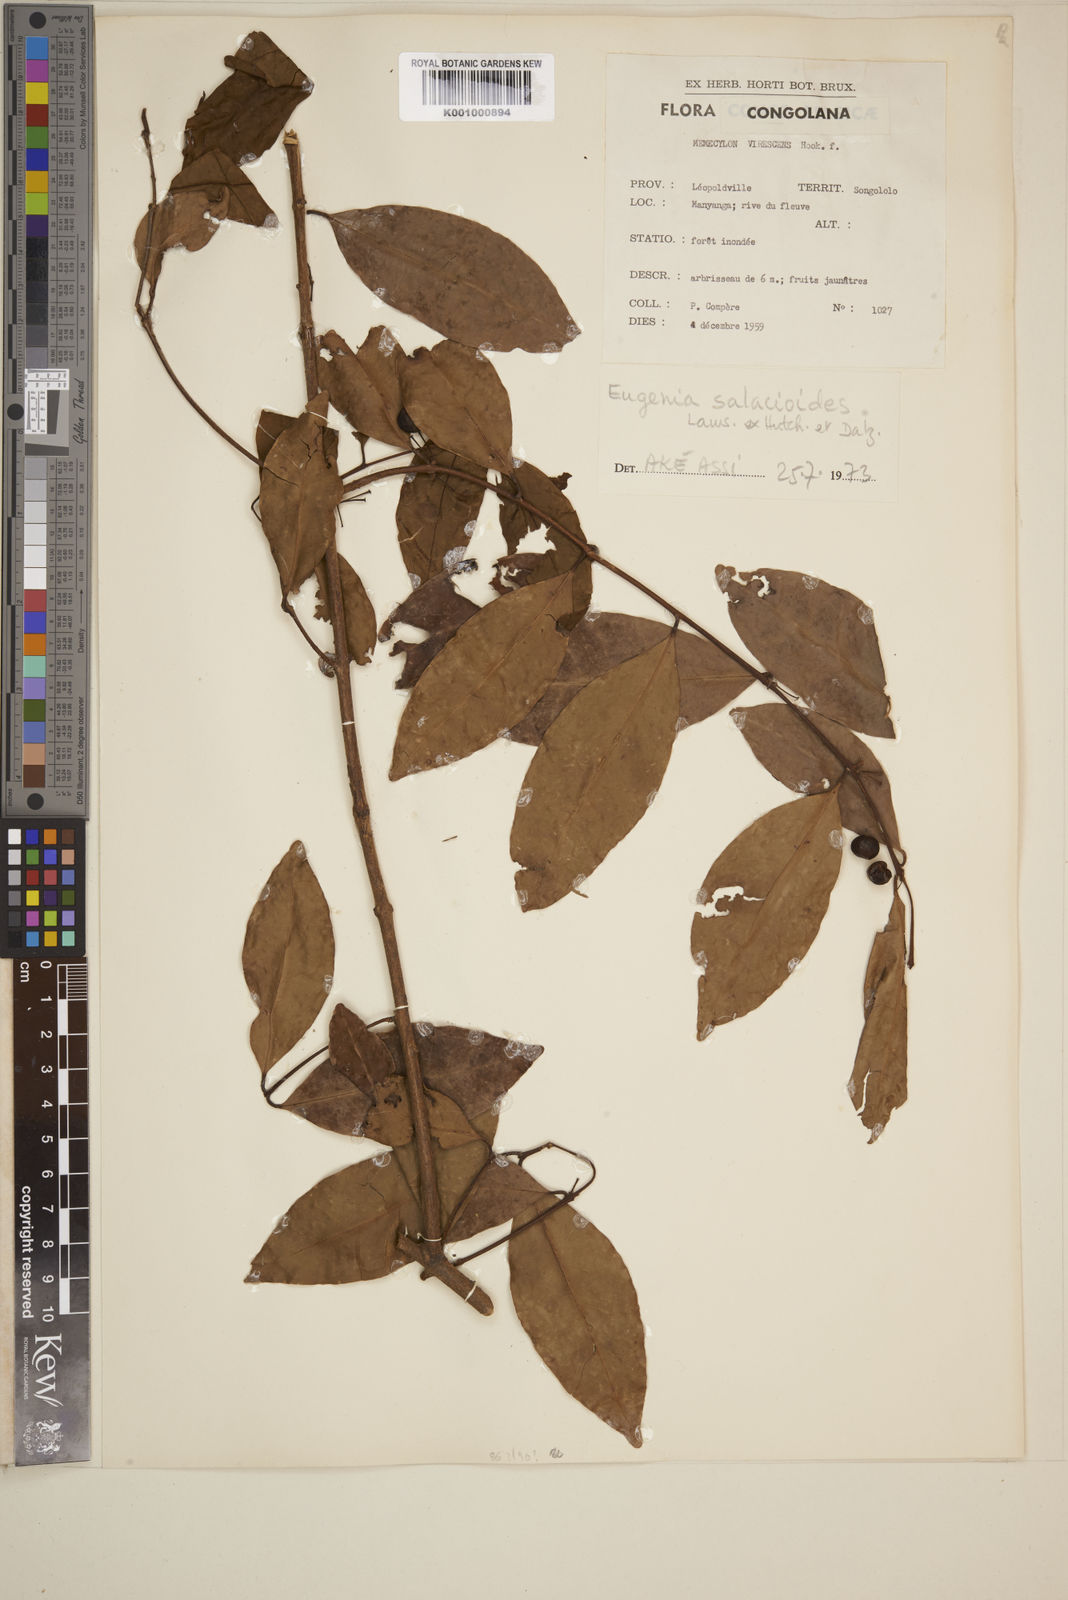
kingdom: Plantae
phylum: Tracheophyta
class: Magnoliopsida
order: Myrtales
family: Myrtaceae
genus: Eugenia
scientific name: Eugenia salacioides
